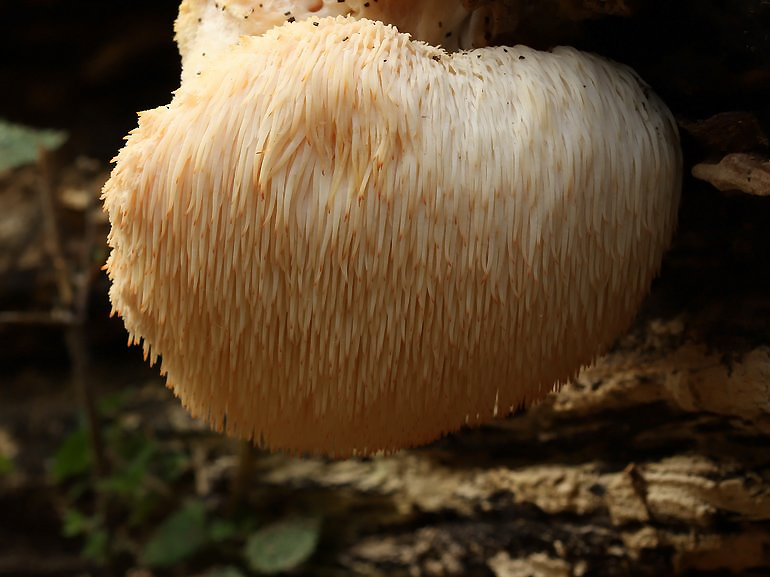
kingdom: Fungi
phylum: Basidiomycota
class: Agaricomycetes
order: Russulales
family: Hericiaceae
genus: Hericium
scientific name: Hericium erinaceus
